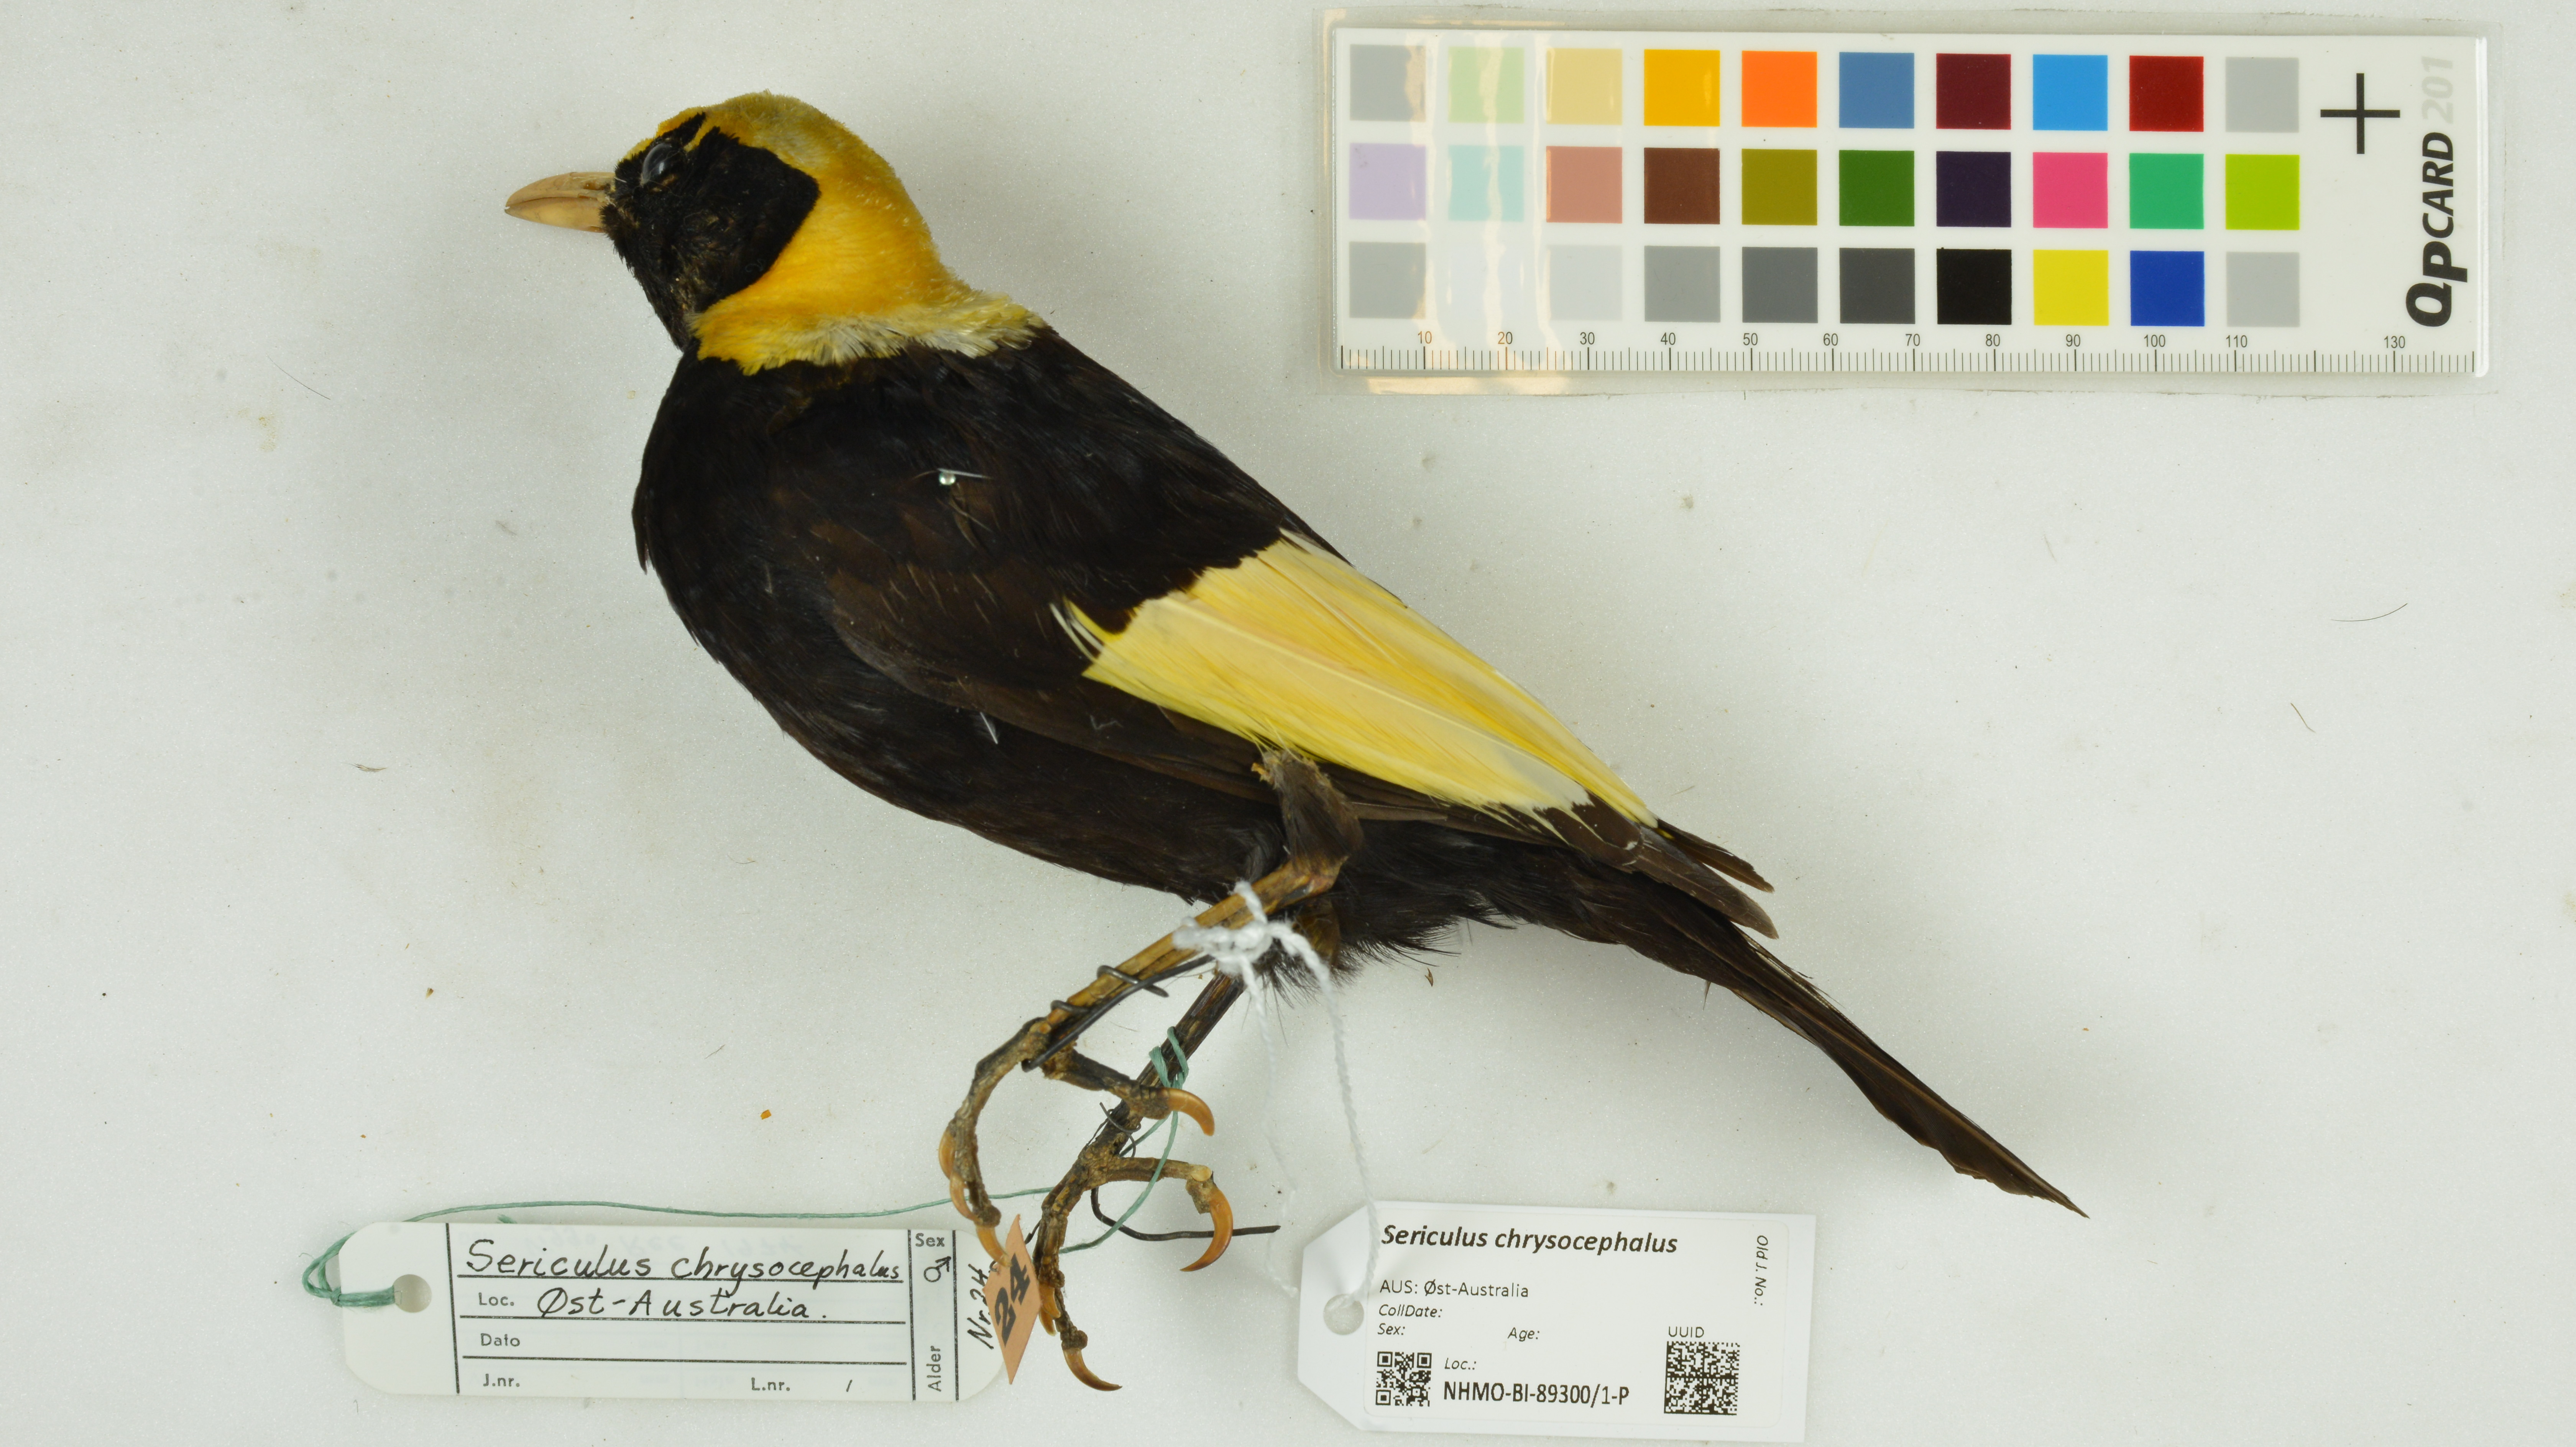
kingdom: Animalia
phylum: Chordata
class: Aves
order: Passeriformes
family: Ptilonorhynchidae
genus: Sericulus
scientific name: Sericulus chrysocephalus
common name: Regent bowerbird
